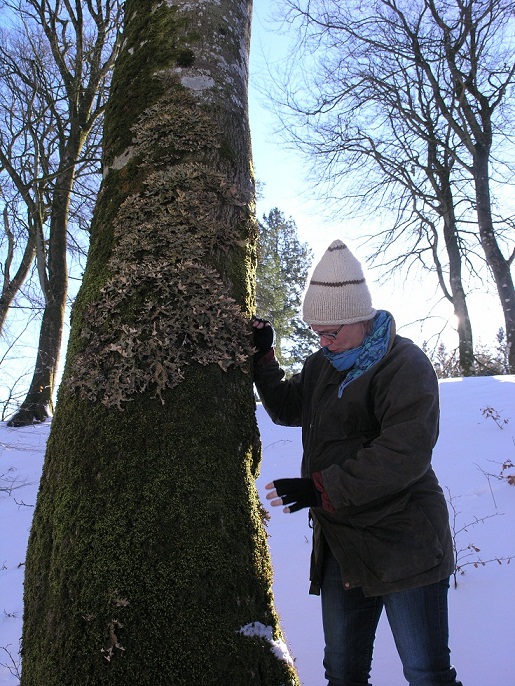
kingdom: Fungi
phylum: Ascomycota
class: Lecanoromycetes
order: Peltigerales
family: Lobariaceae
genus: Lobaria
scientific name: Lobaria pulmonaria
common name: almindelig lungelav
